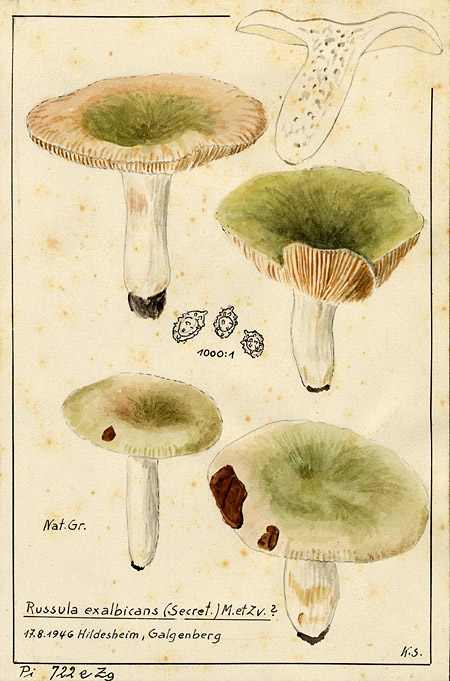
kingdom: Fungi
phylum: Basidiomycota
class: Agaricomycetes
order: Russulales
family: Russulaceae
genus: Russula
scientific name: Russula exalbicans
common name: Bleached brittlegill
